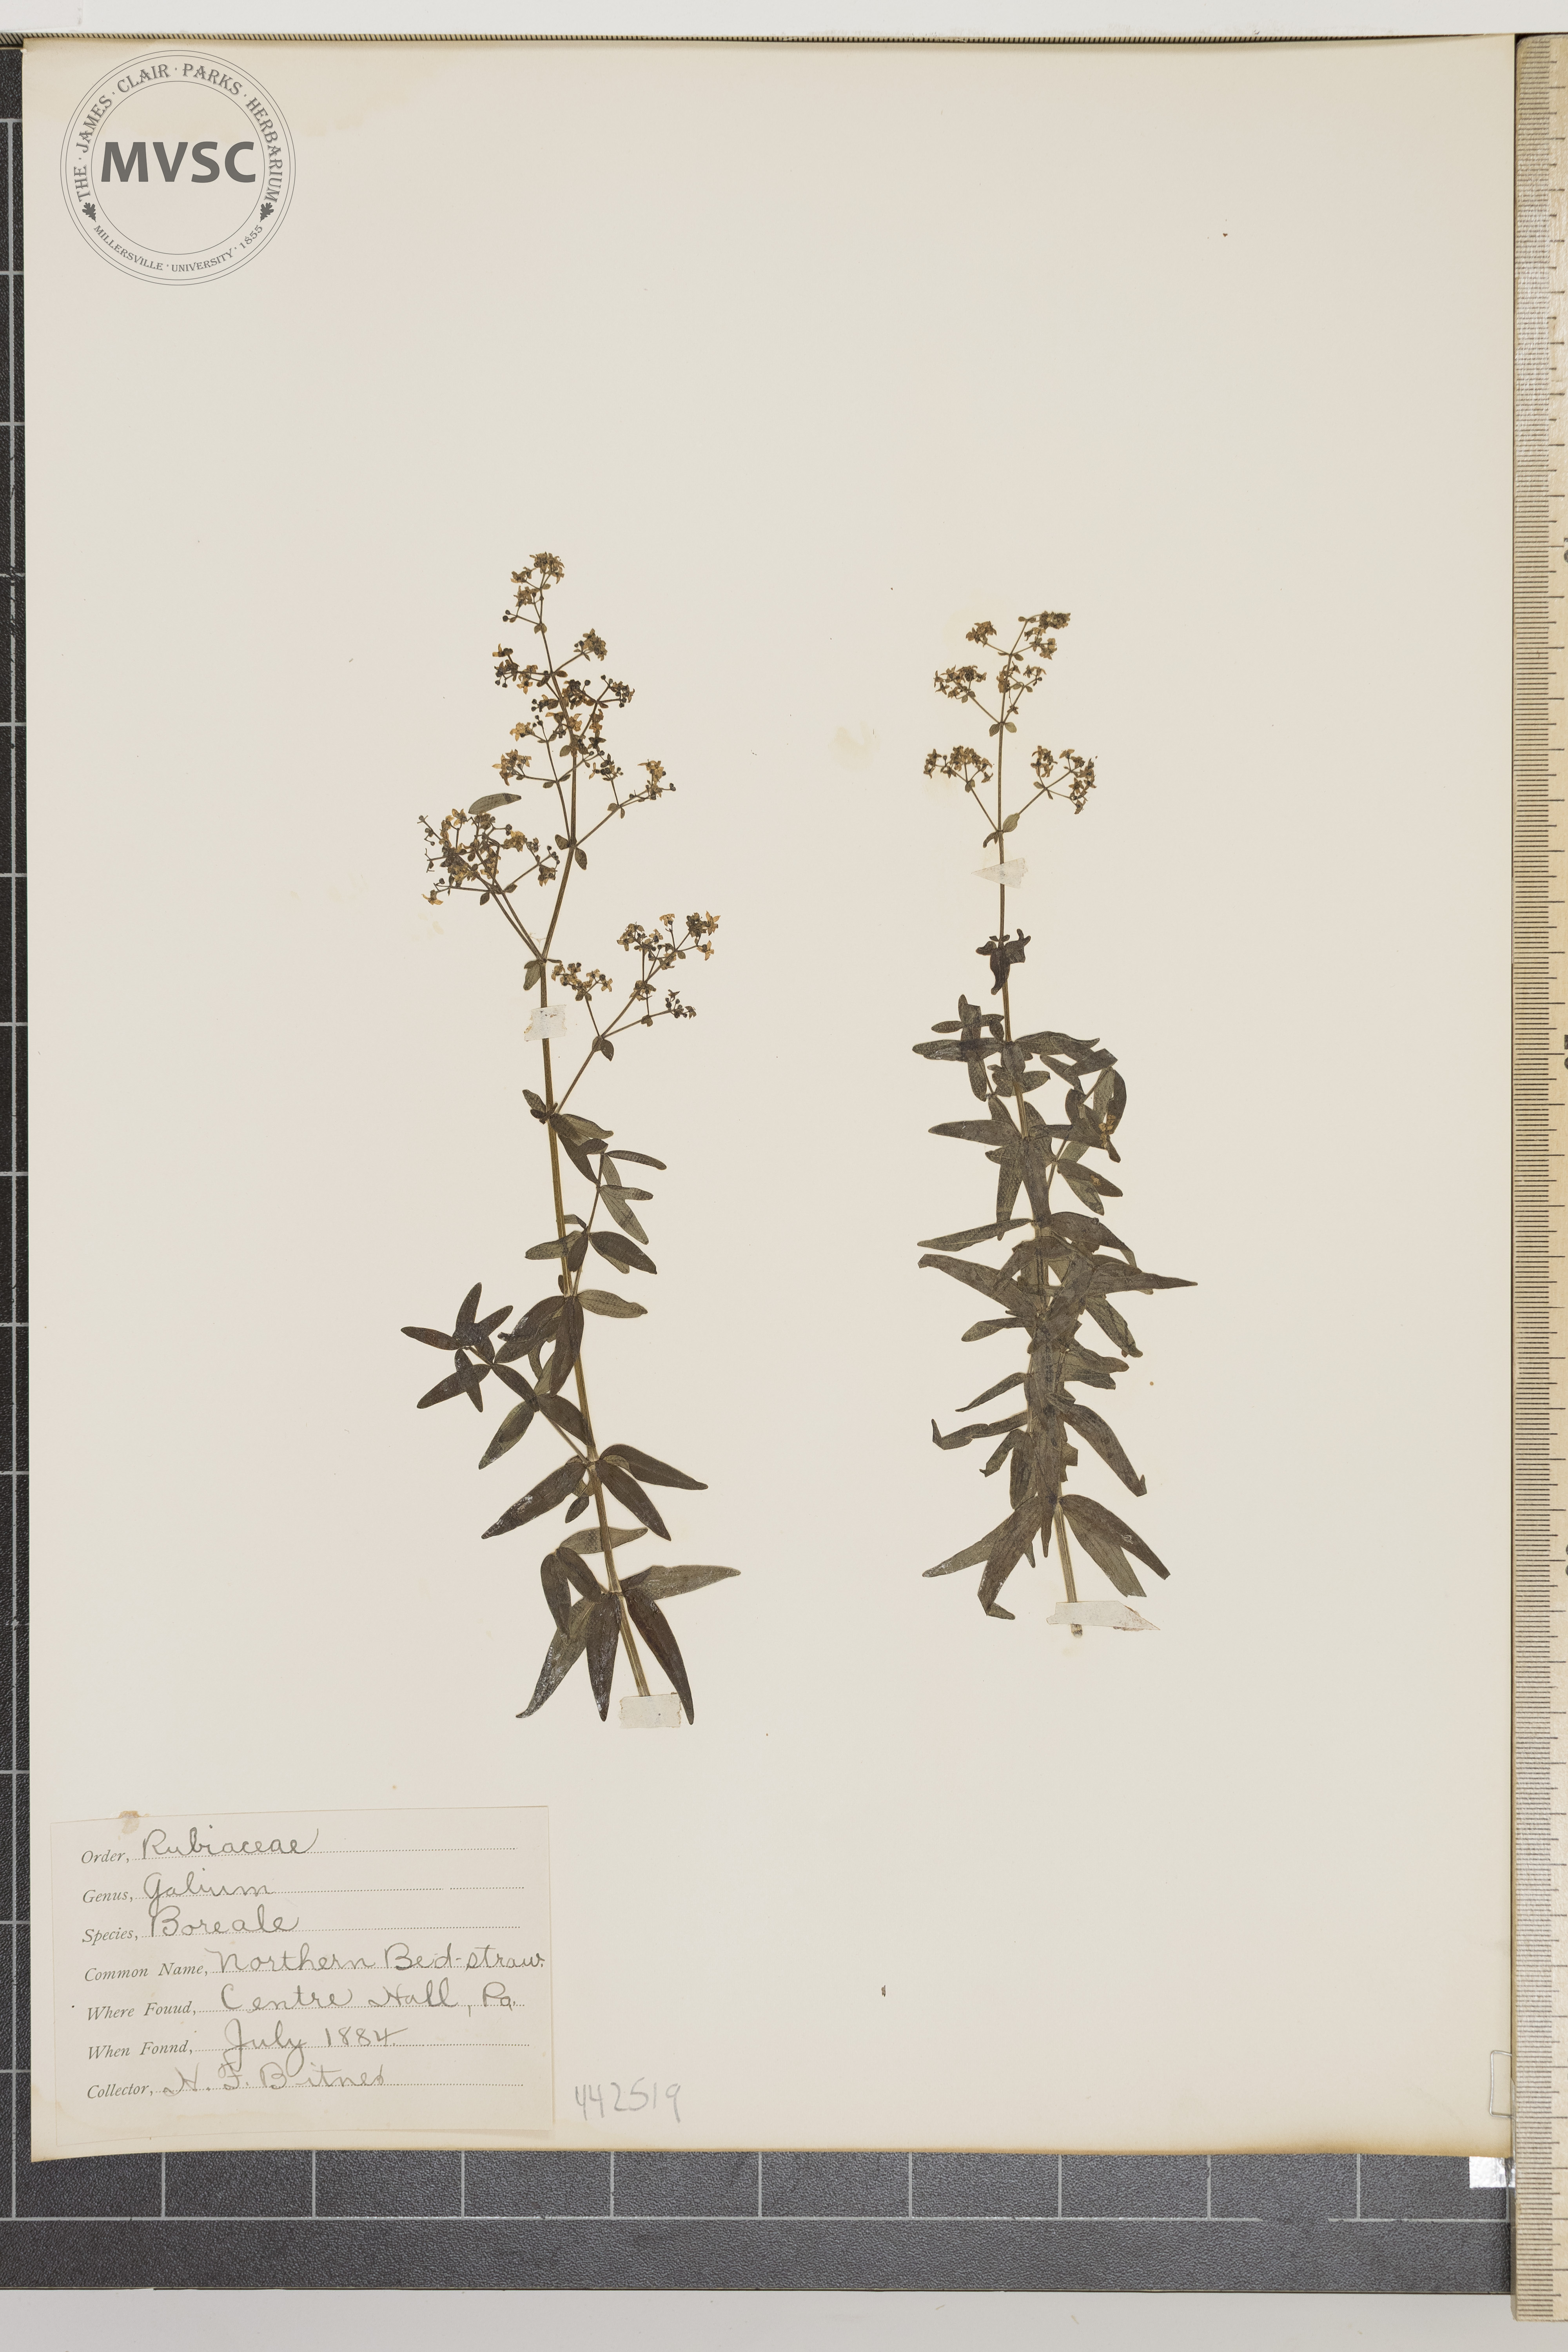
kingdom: Plantae
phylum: Tracheophyta
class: Magnoliopsida
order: Gentianales
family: Rubiaceae
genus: Galium
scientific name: Galium boreale
